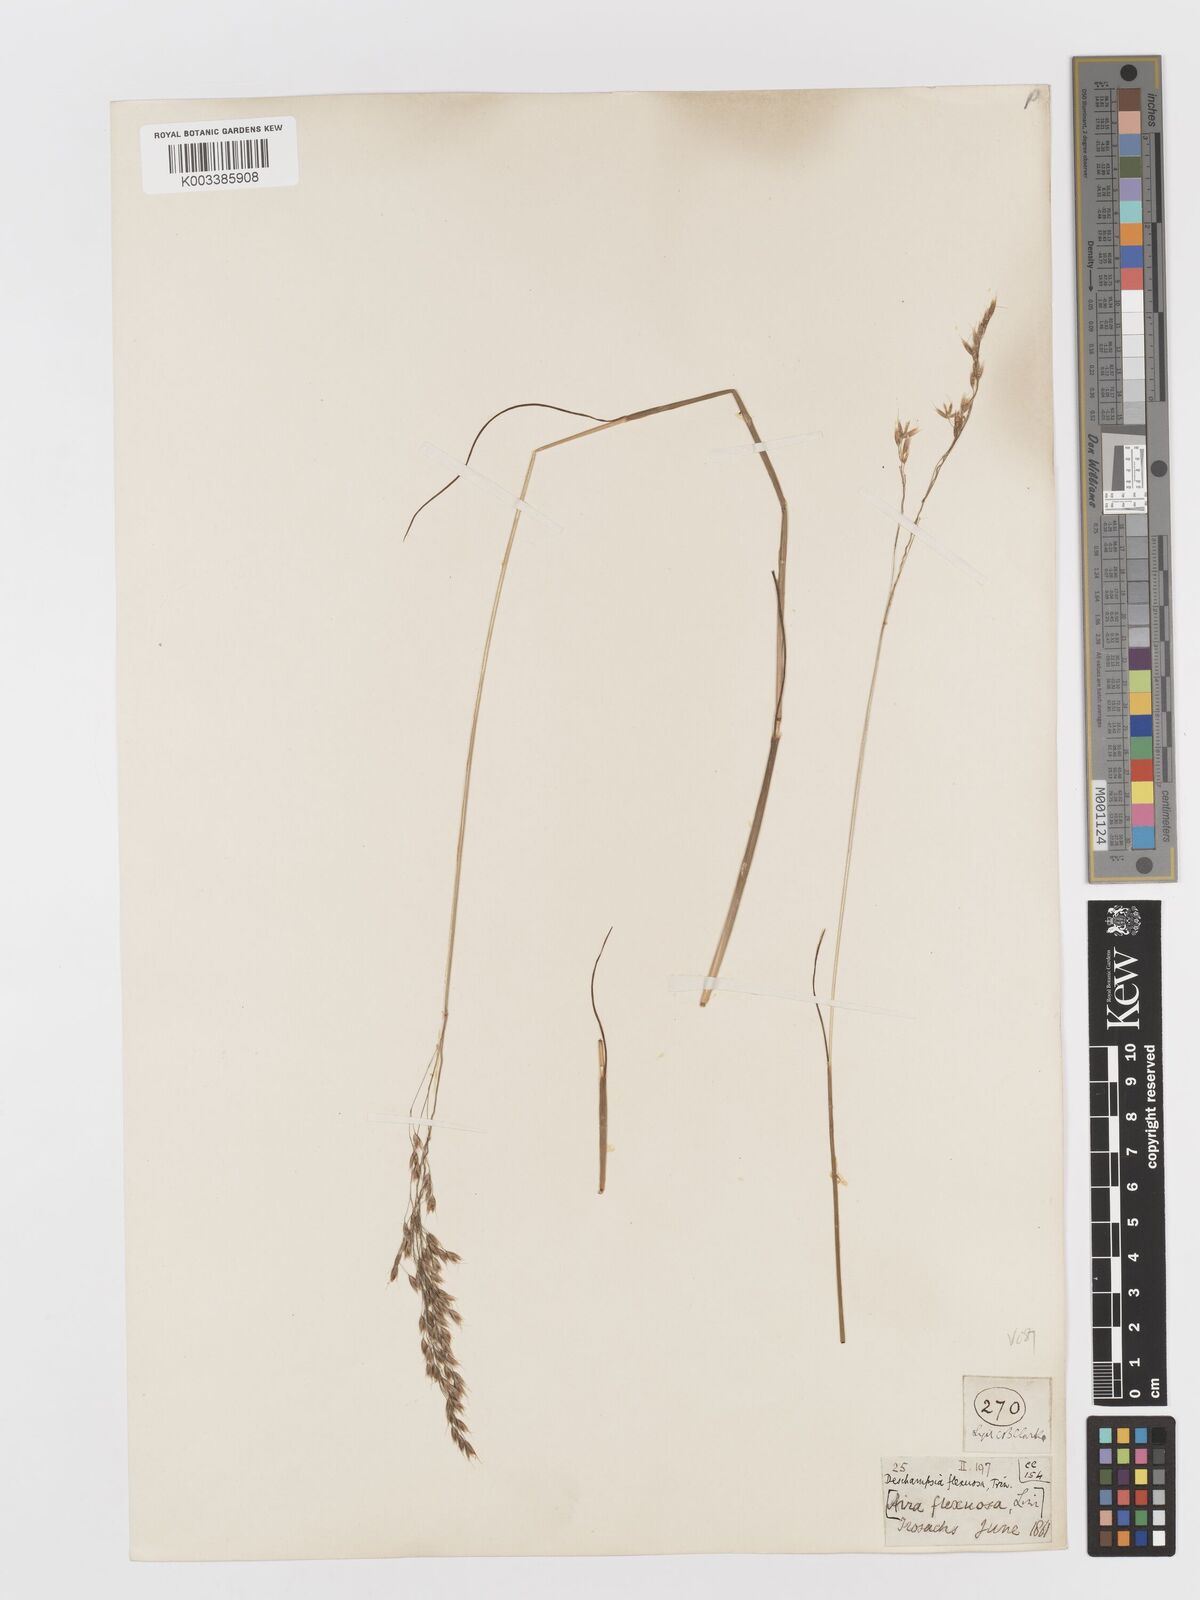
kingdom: Plantae
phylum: Tracheophyta
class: Liliopsida
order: Poales
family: Poaceae
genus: Avenella
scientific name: Avenella flexuosa
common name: Wavy hairgrass
